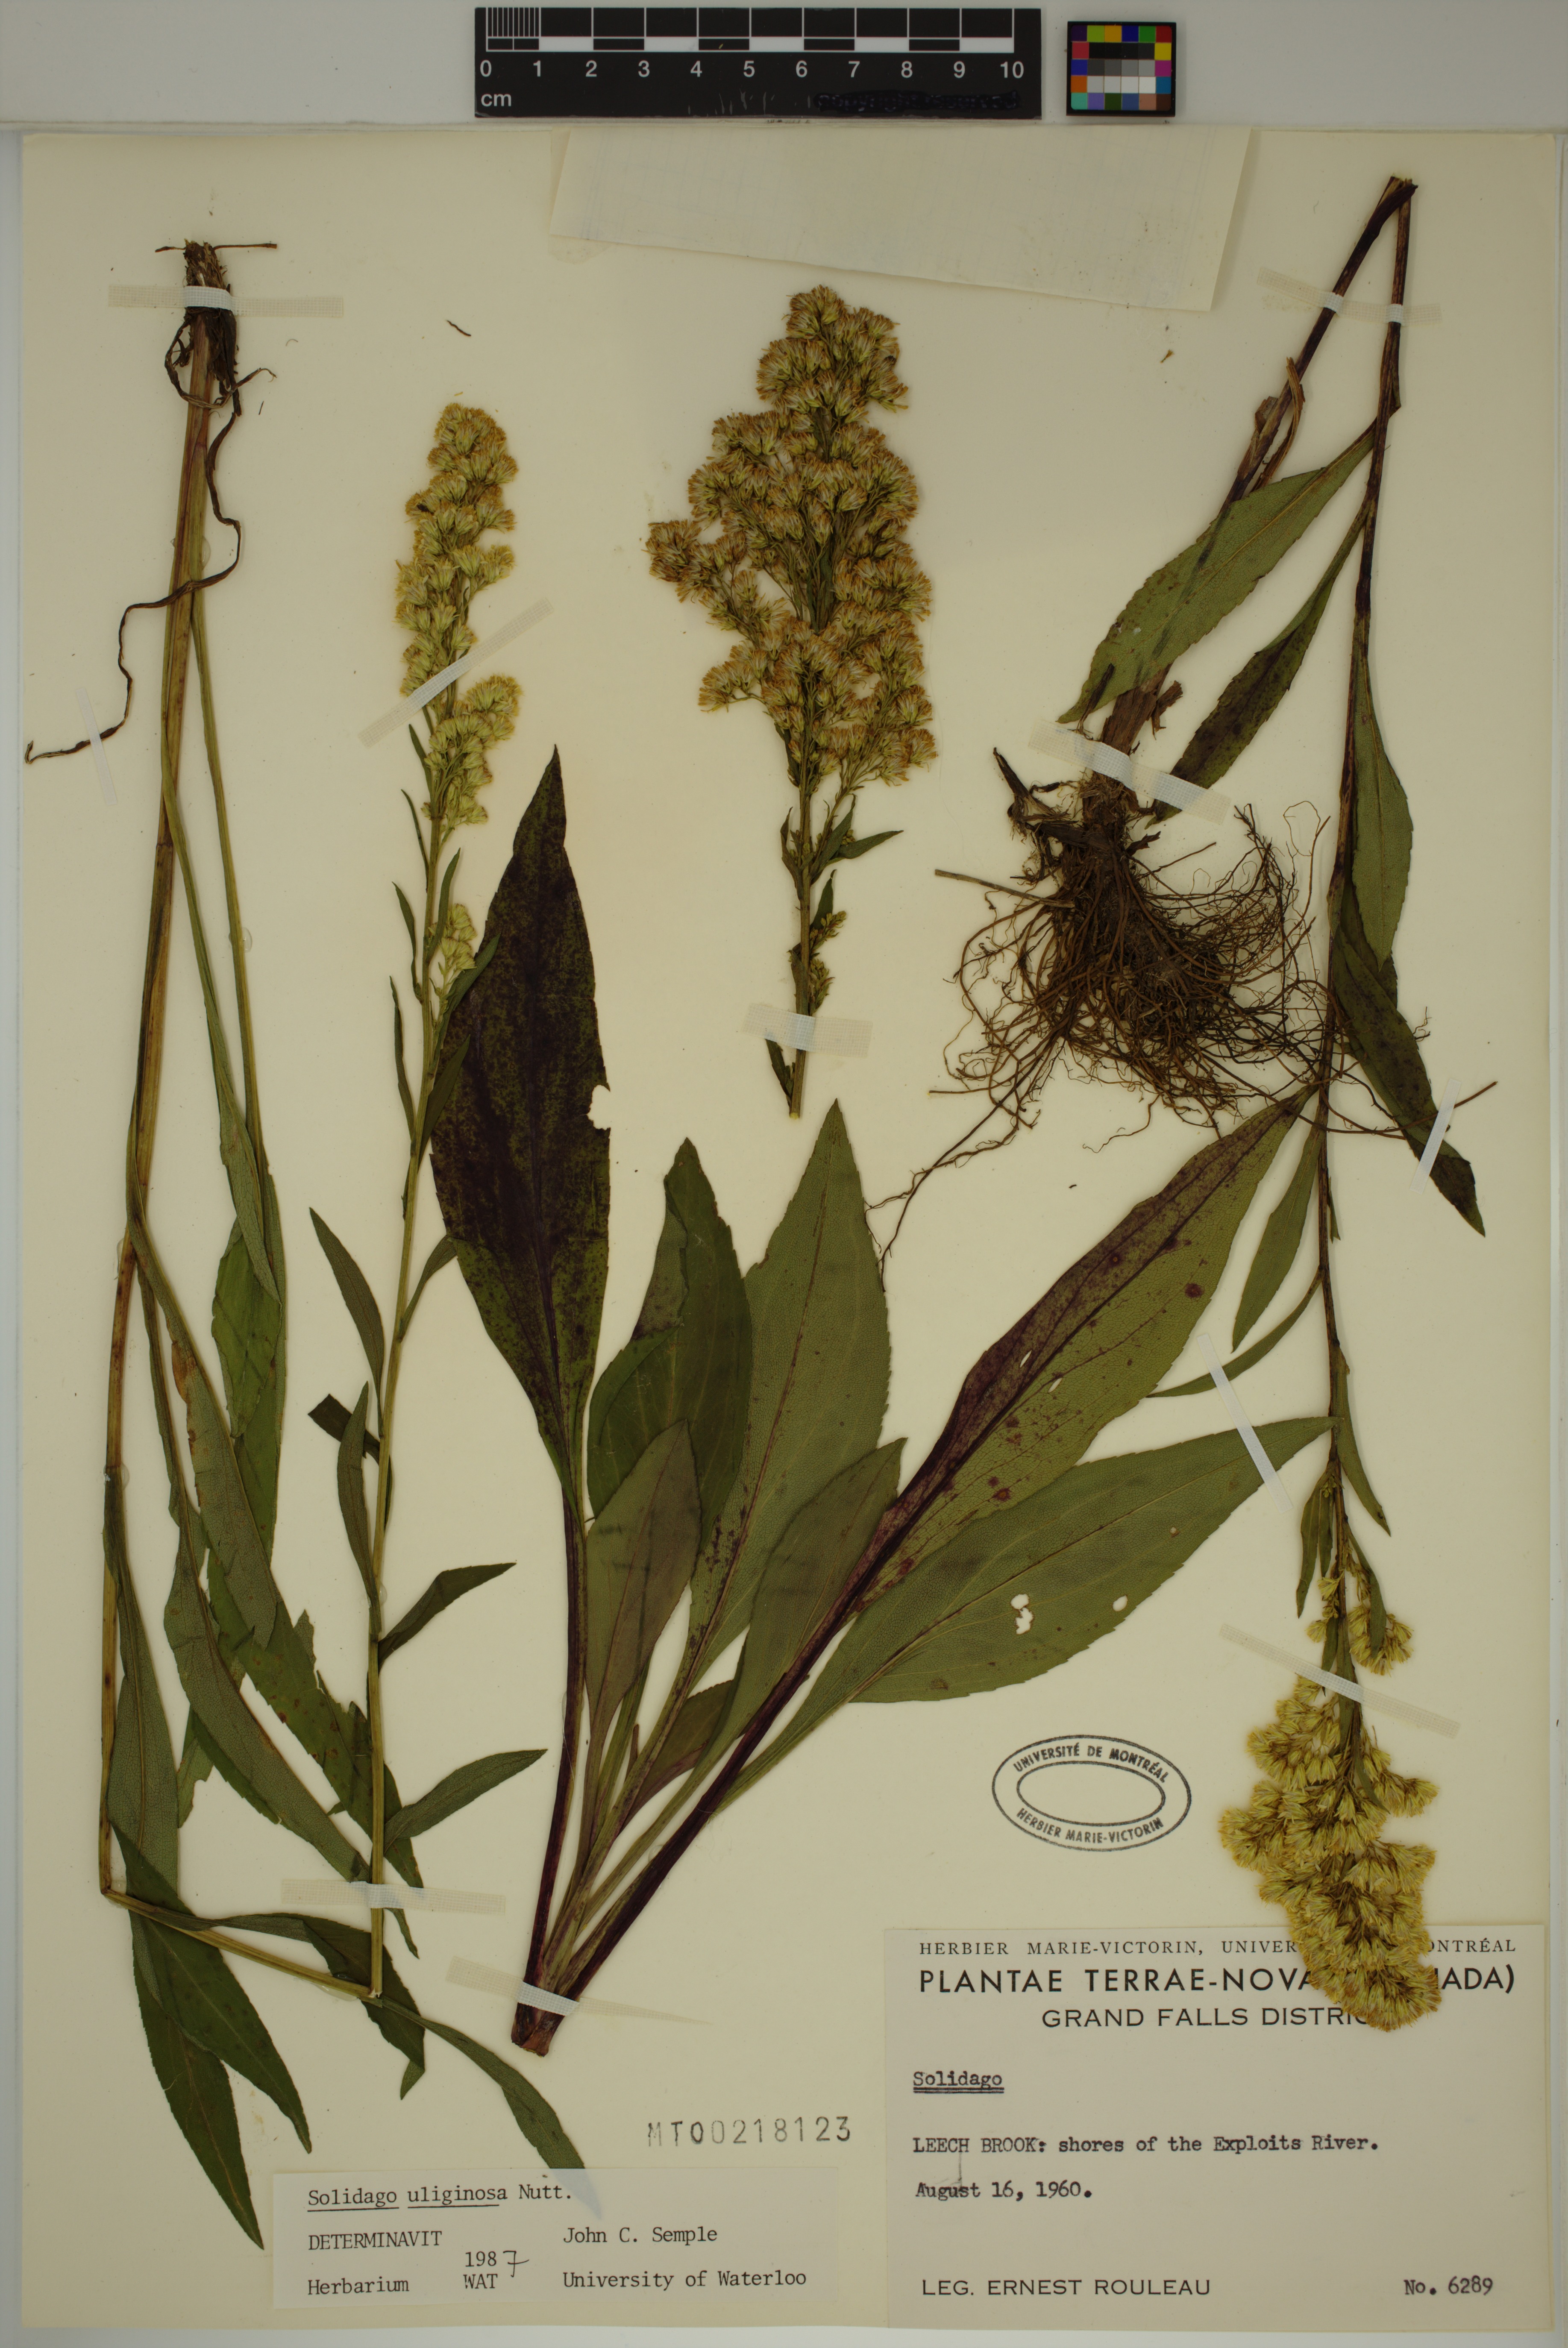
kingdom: Plantae
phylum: Tracheophyta
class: Magnoliopsida
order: Asterales
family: Asteraceae
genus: Solidago
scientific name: Solidago uliginosa
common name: Bog goldenrod
